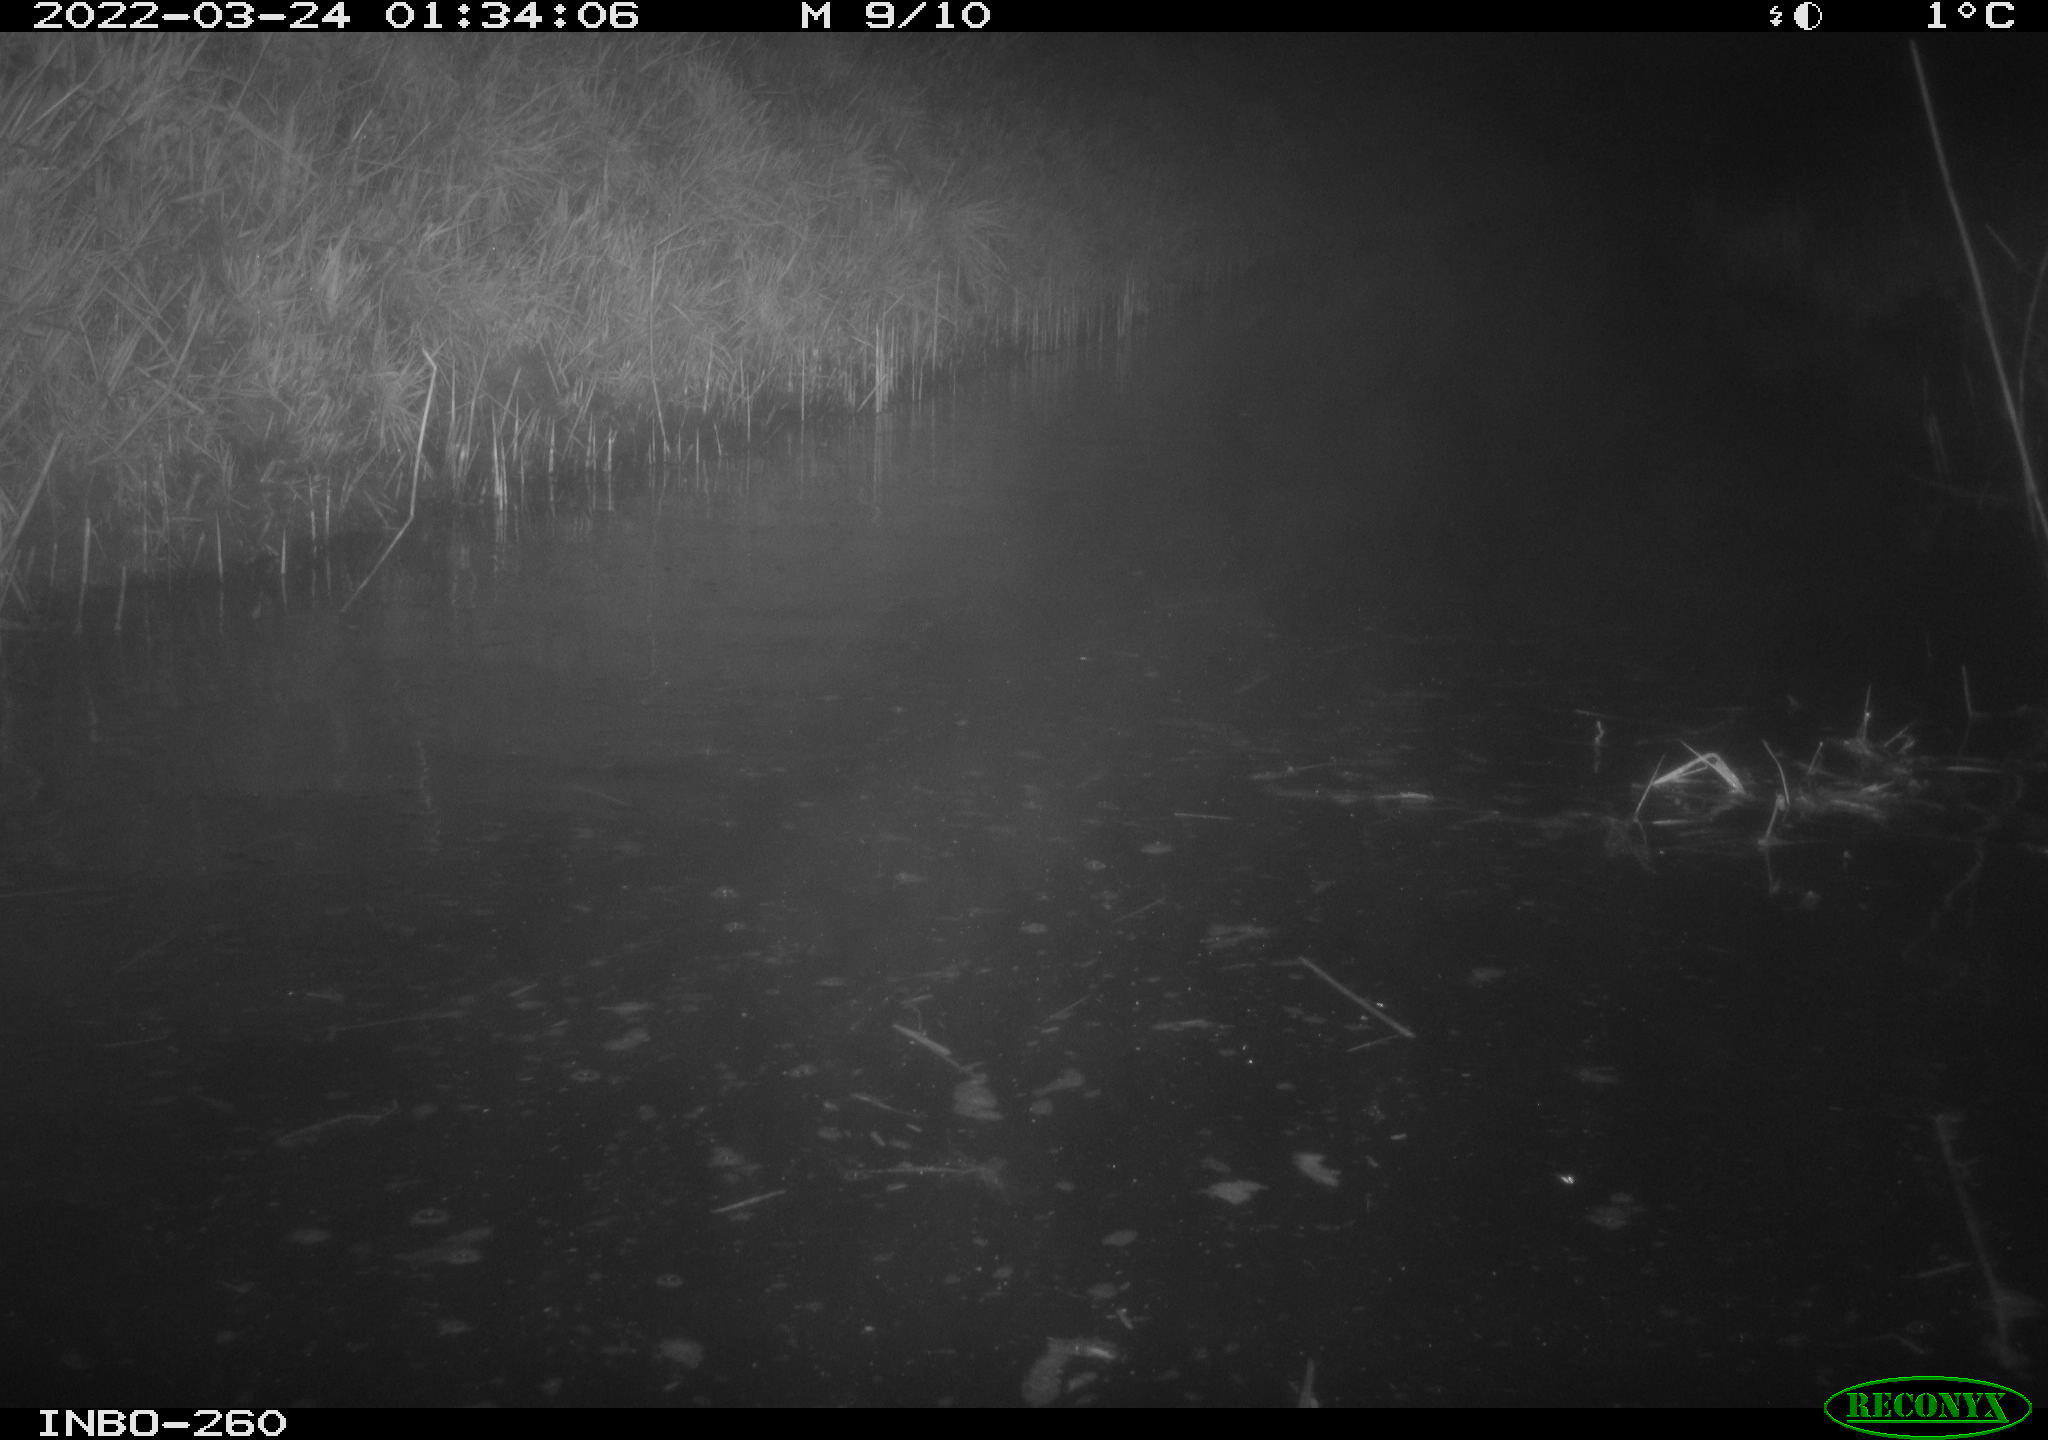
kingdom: Animalia
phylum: Chordata
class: Mammalia
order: Rodentia
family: Cricetidae
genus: Ondatra
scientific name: Ondatra zibethicus
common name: Muskrat
